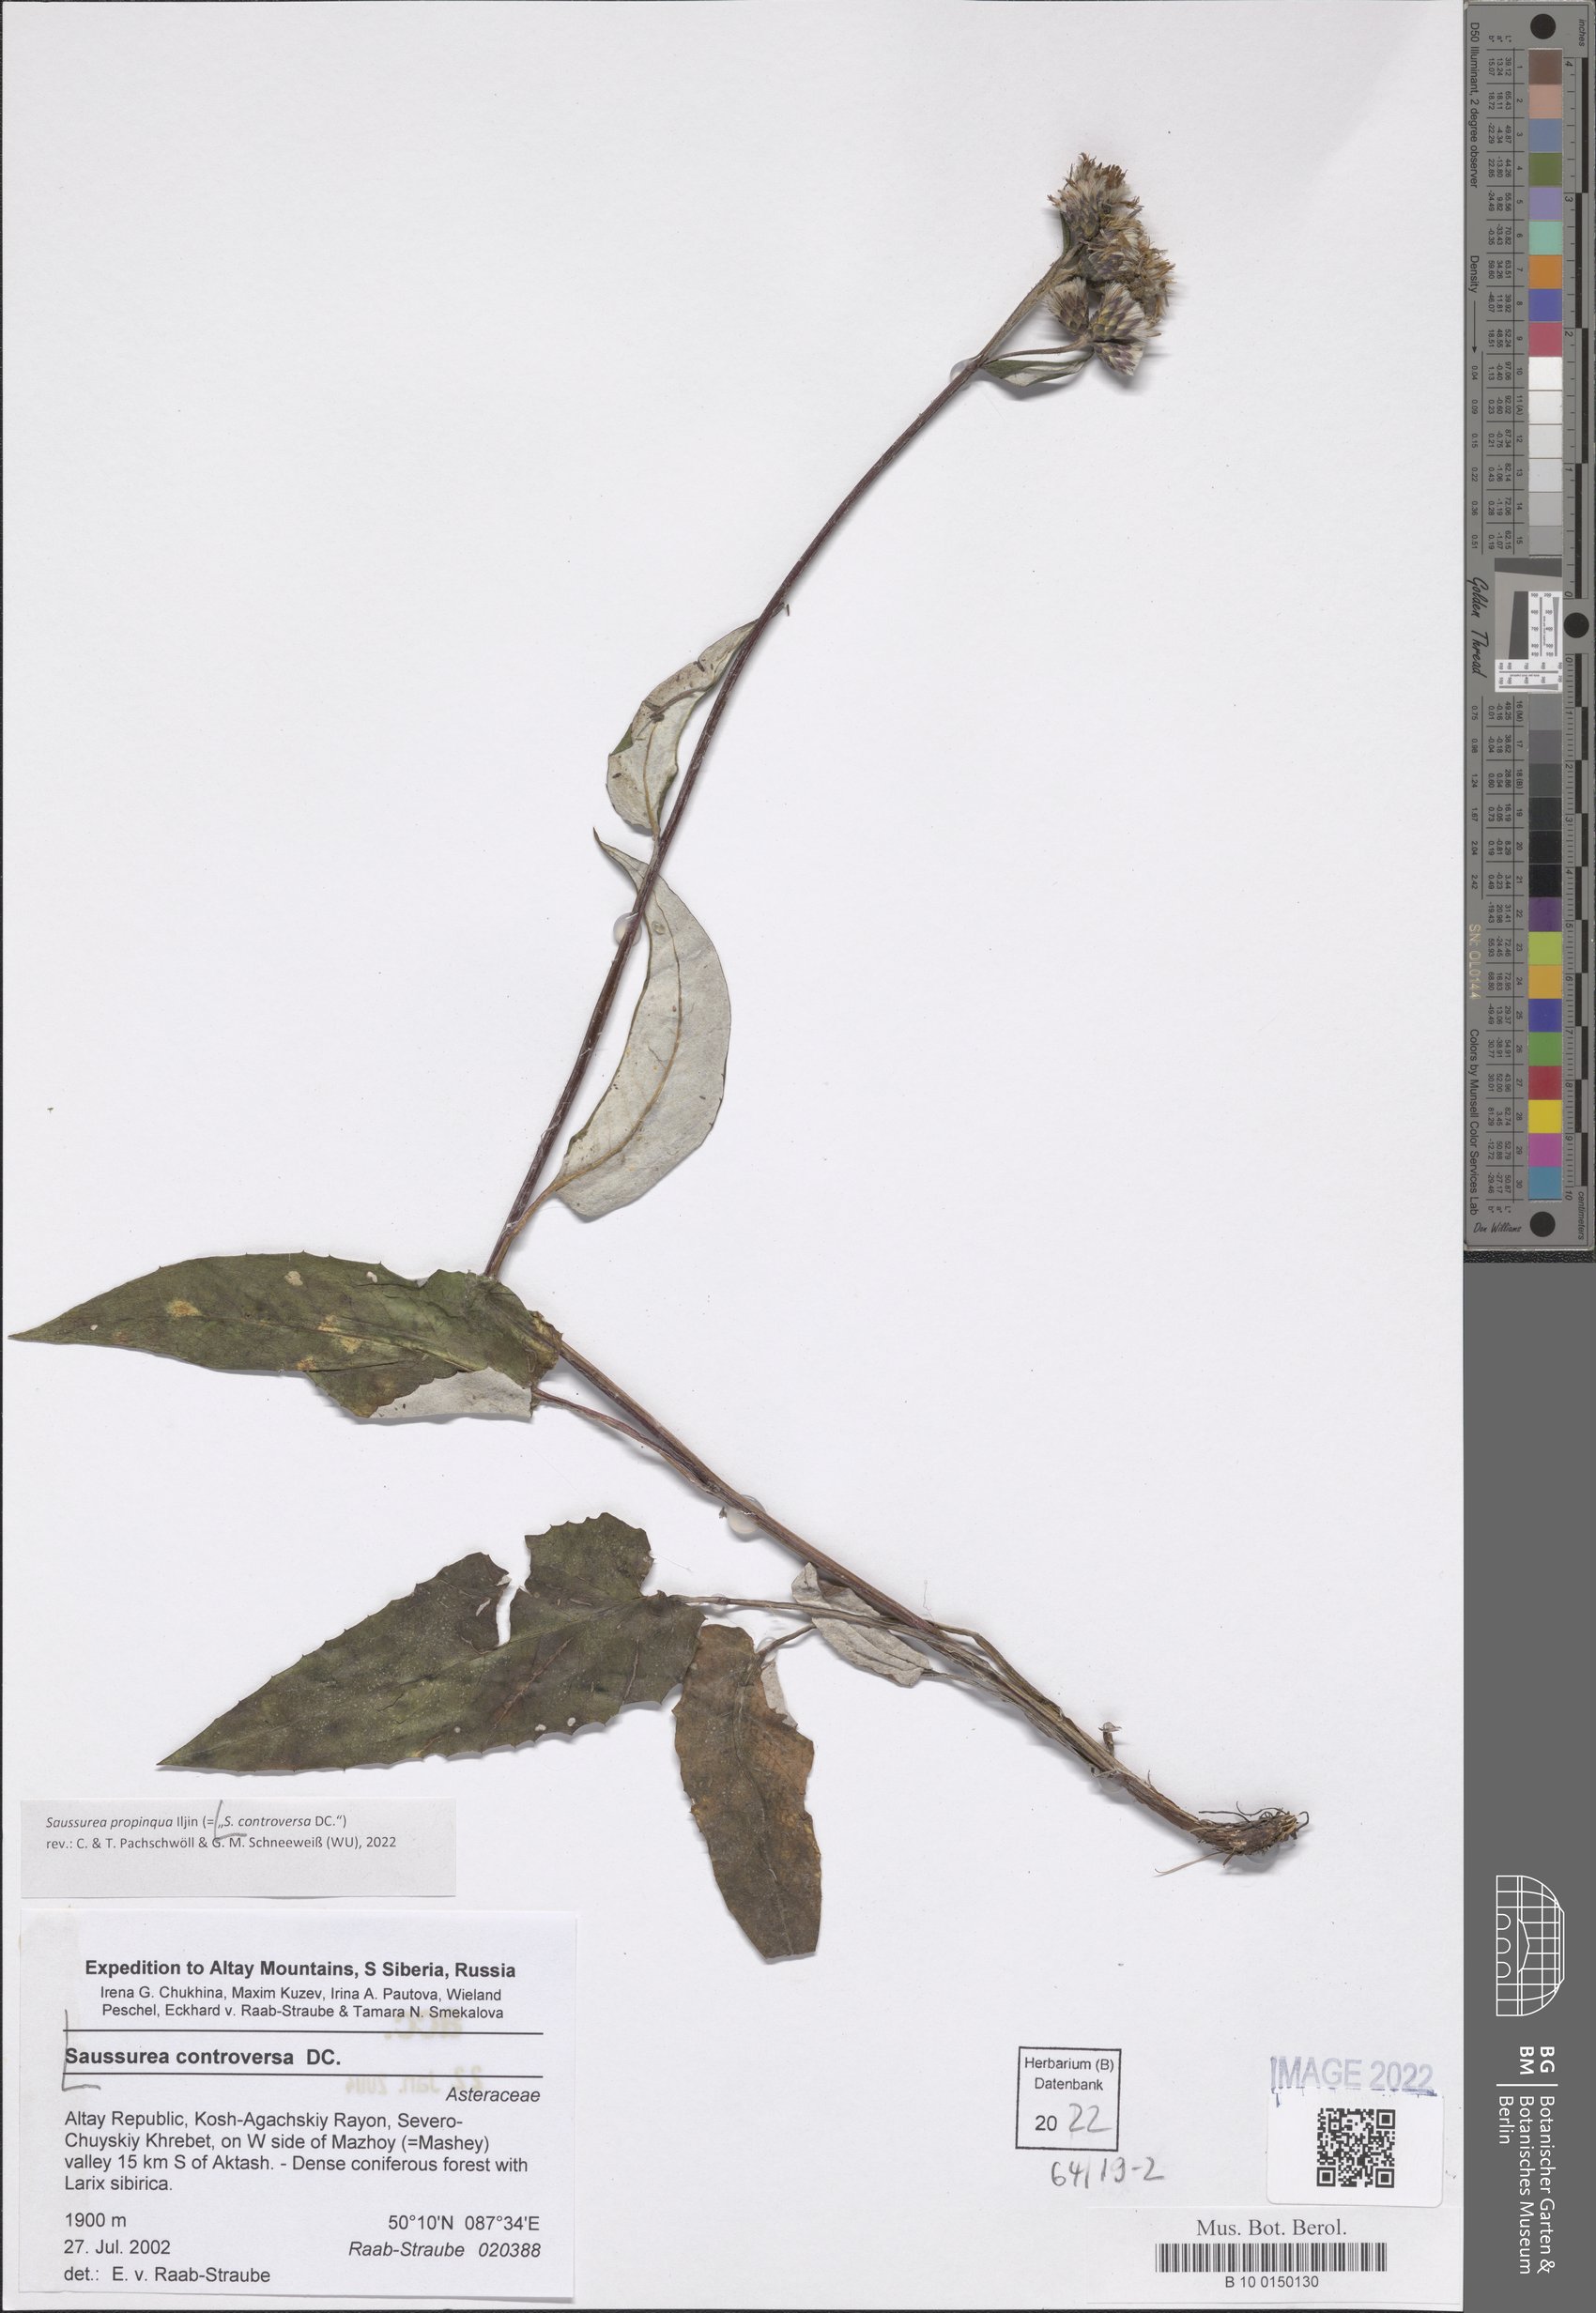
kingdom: Plantae
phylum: Tracheophyta
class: Magnoliopsida
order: Asterales
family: Asteraceae
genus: Saussurea
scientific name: Saussurea controversa
